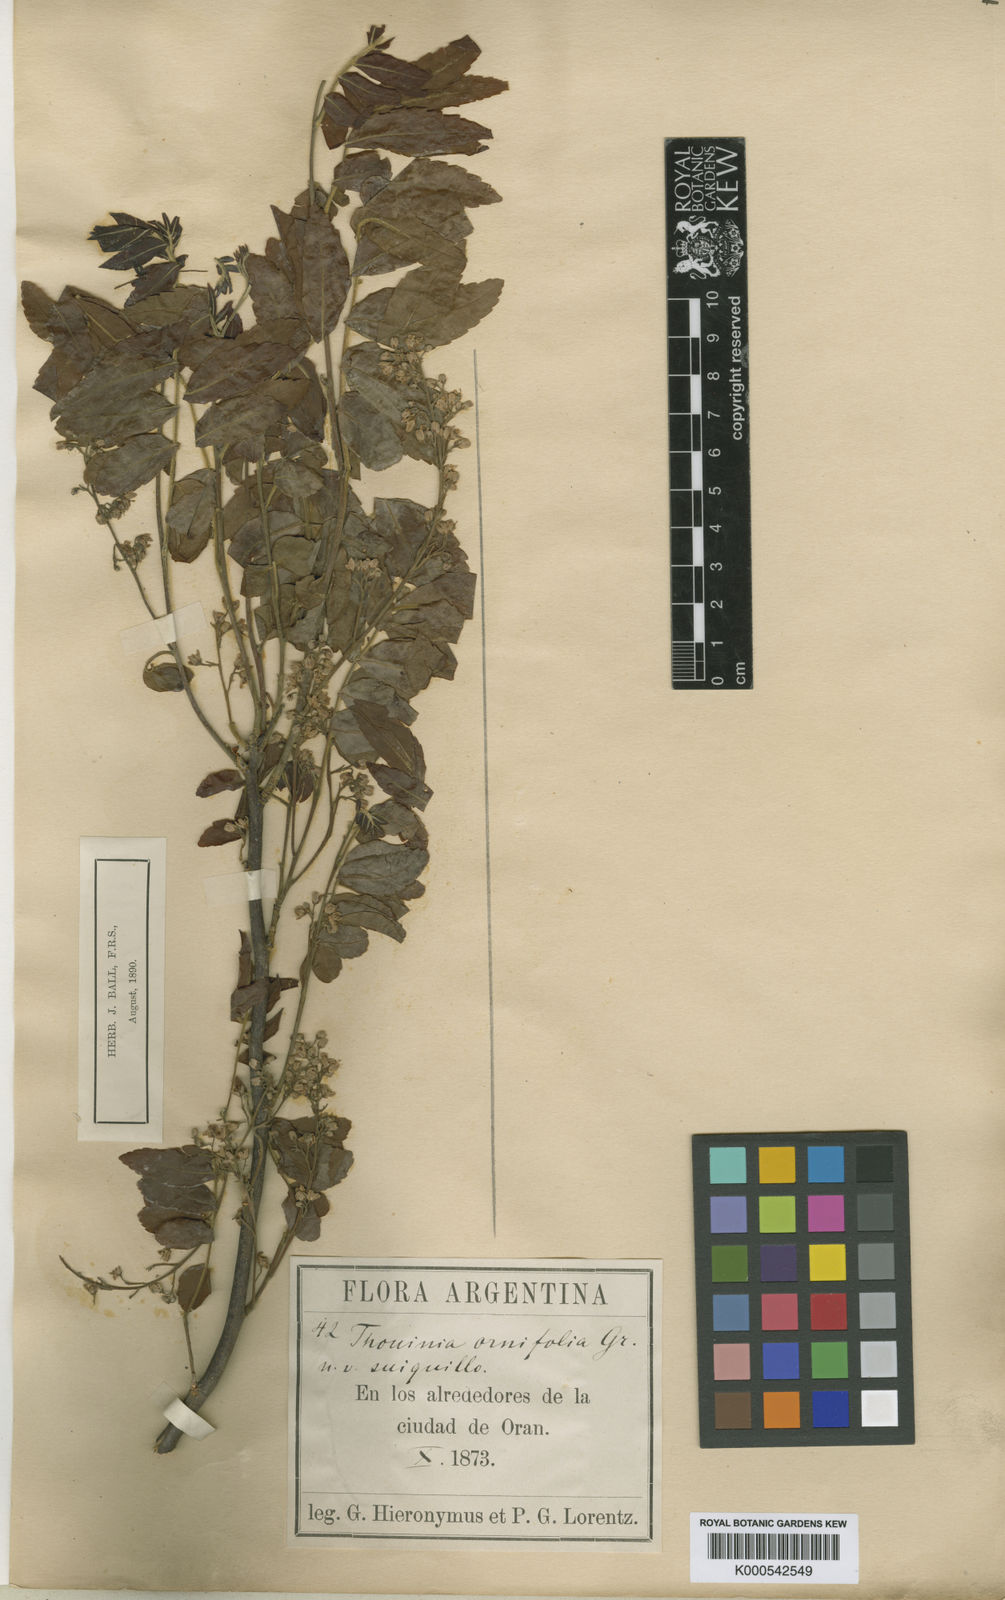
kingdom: Plantae
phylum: Tracheophyta
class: Magnoliopsida
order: Sapindales
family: Sapindaceae
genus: Diatenopteryx
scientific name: Diatenopteryx sorbifolia
